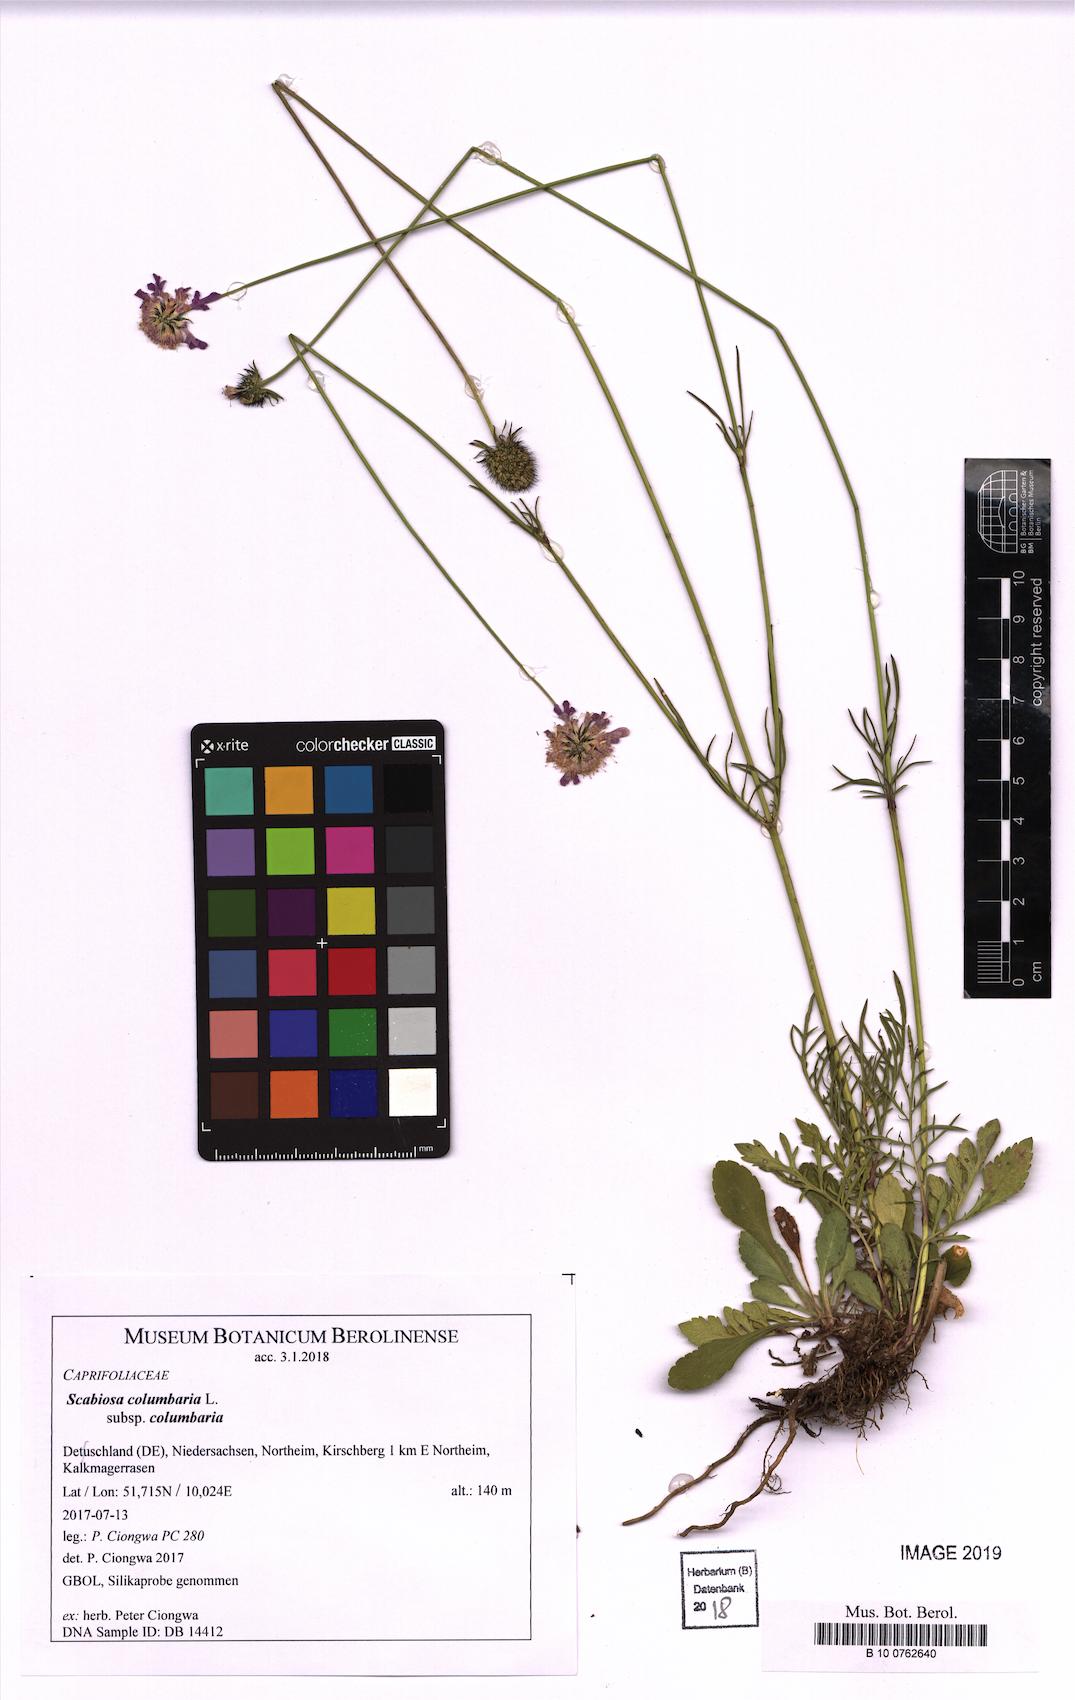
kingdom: Plantae
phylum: Tracheophyta
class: Magnoliopsida
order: Dipsacales
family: Caprifoliaceae
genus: Scabiosa
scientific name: Scabiosa columbaria
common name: Small scabious
